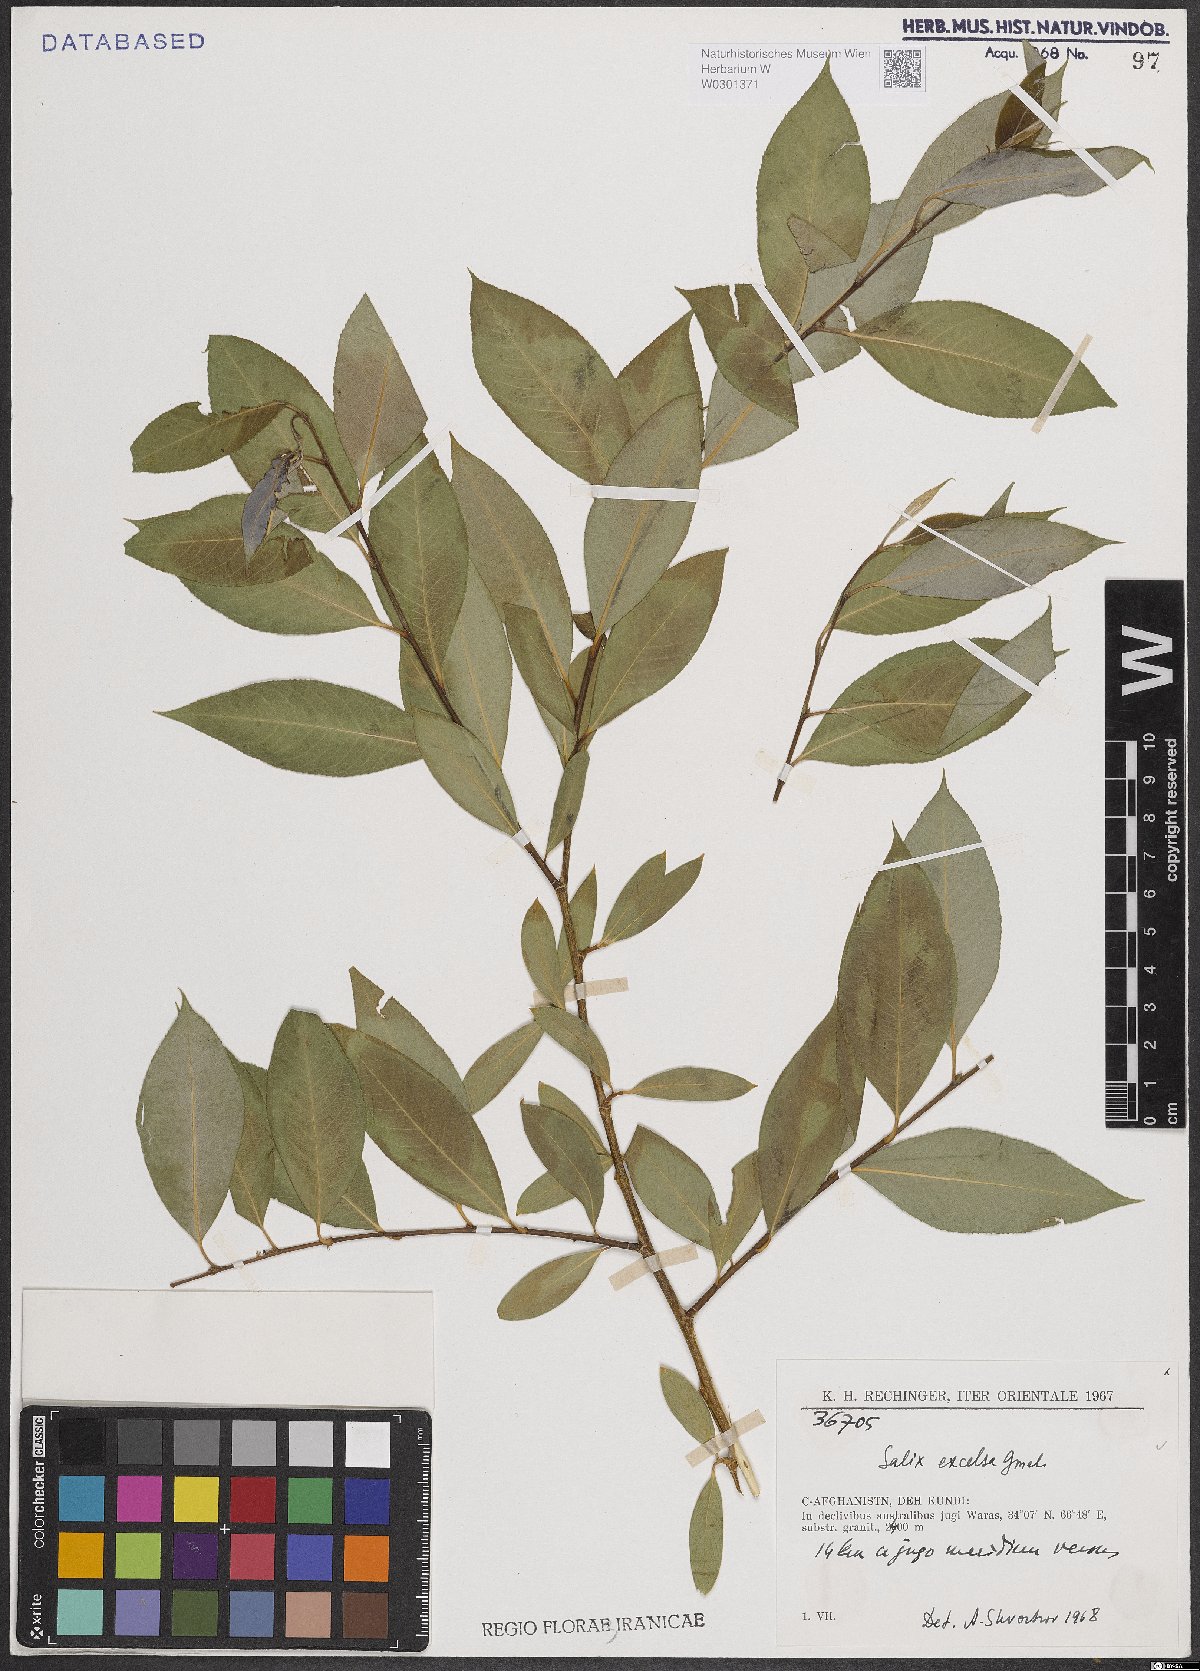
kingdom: Plantae
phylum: Tracheophyta
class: Magnoliopsida
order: Malpighiales
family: Salicaceae
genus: Salix
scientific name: Salix excelsa
